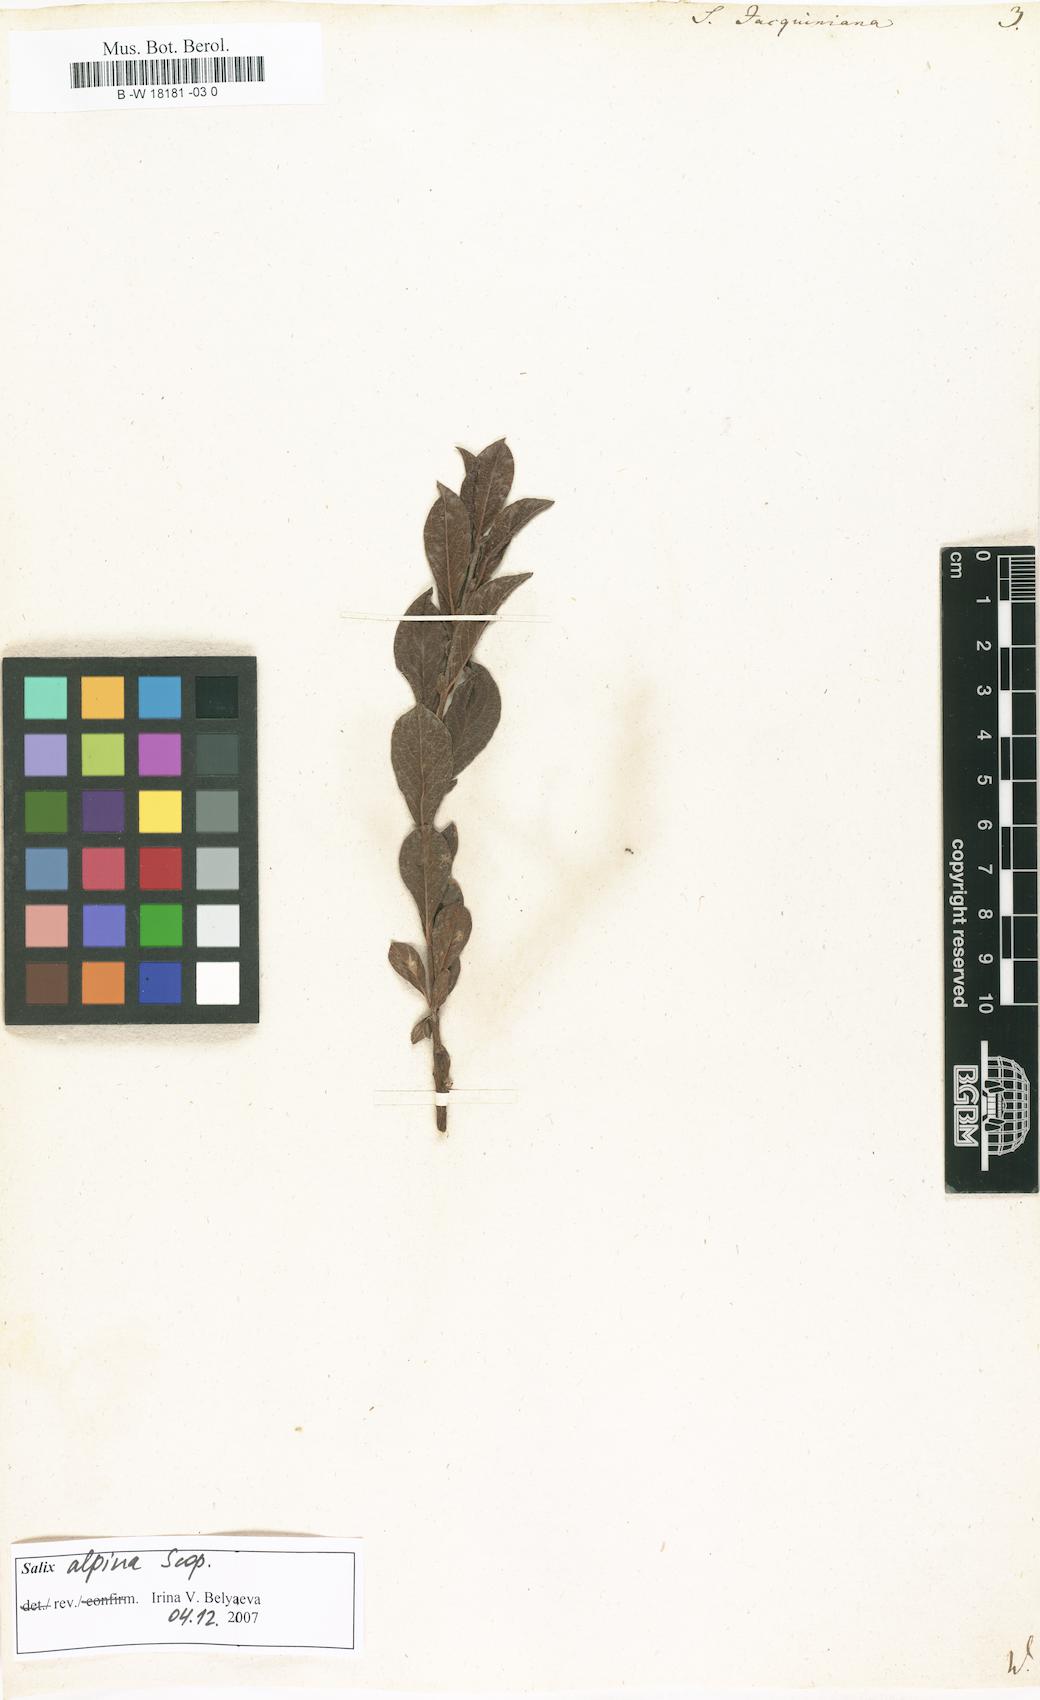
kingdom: Plantae
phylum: Tracheophyta
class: Magnoliopsida
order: Malpighiales
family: Salicaceae
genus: Salix
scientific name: Salix alpina
